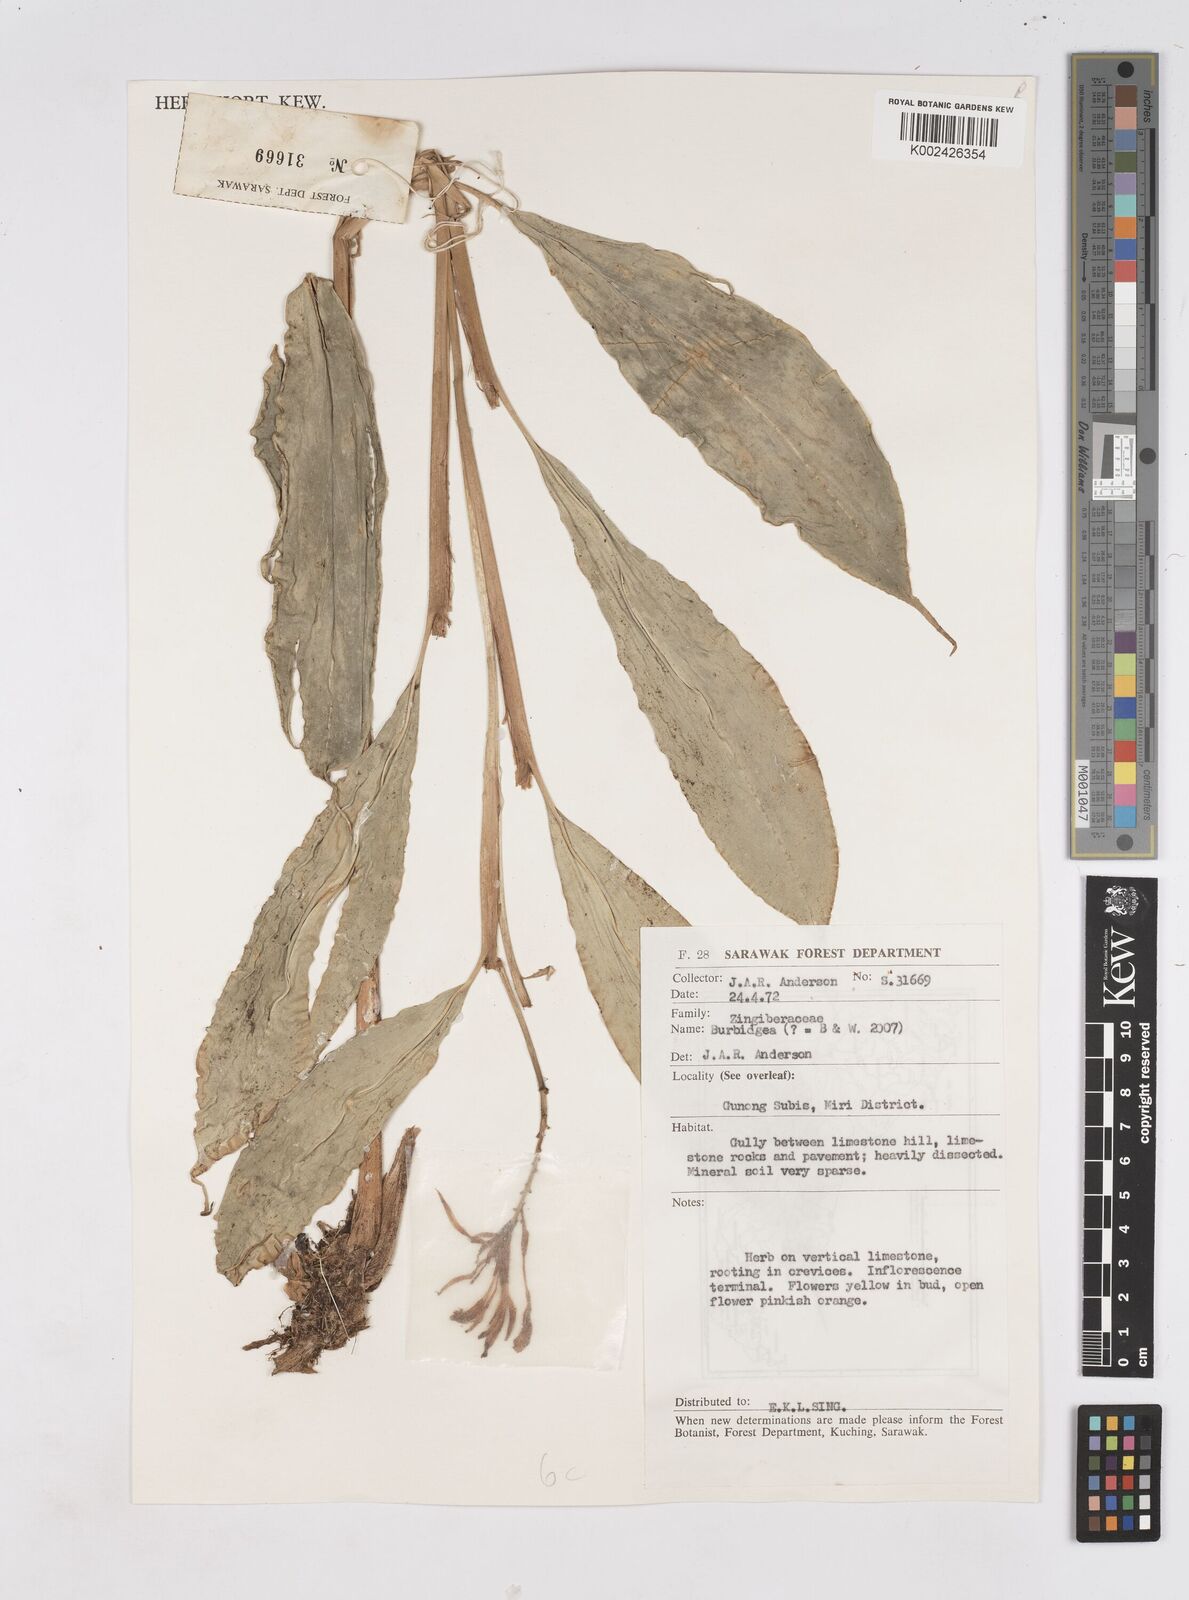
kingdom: Plantae
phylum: Tracheophyta
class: Liliopsida
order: Zingiberales
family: Zingiberaceae
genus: Burbidgea
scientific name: Burbidgea
